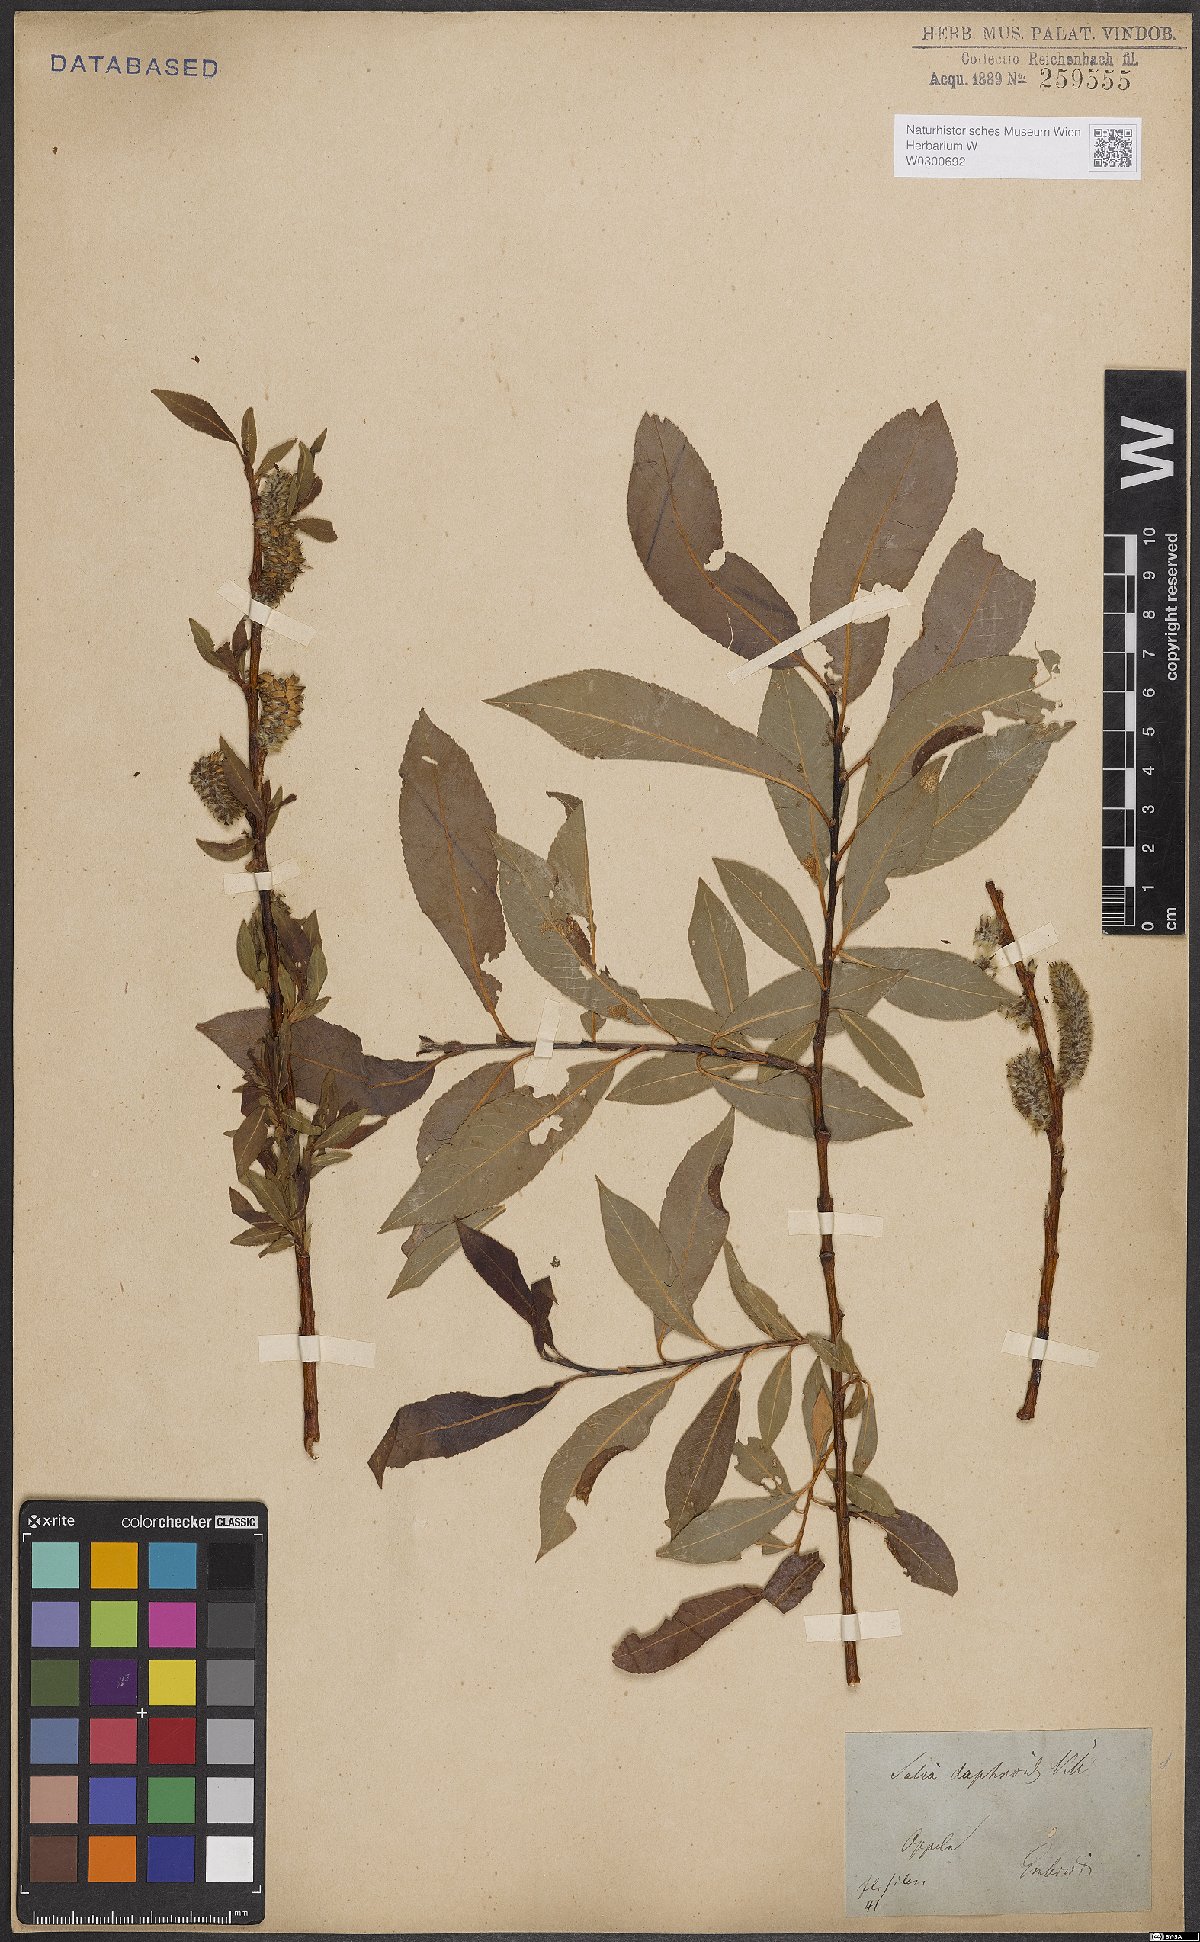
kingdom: Plantae
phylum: Tracheophyta
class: Magnoliopsida
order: Malpighiales
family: Salicaceae
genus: Salix
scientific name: Salix daphnoides
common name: European violet-willow
